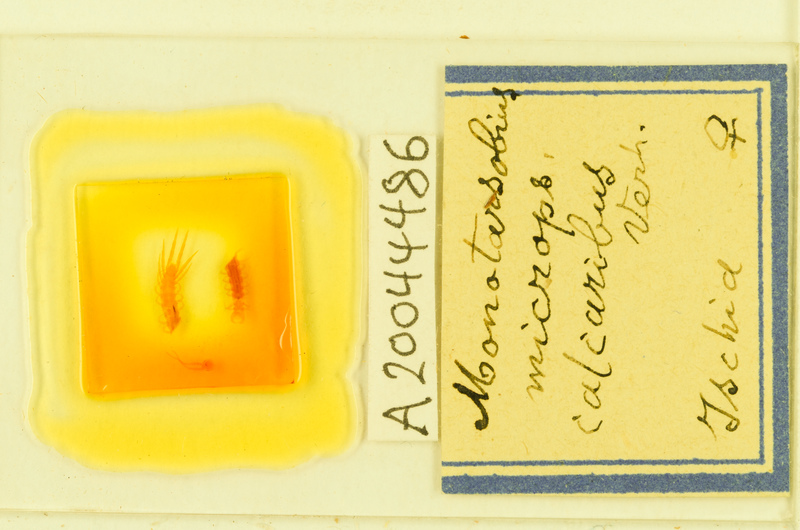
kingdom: Animalia
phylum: Arthropoda
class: Chilopoda
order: Lithobiomorpha
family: Lithobiidae
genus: Monotarsobius
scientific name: Monotarsobius microps
